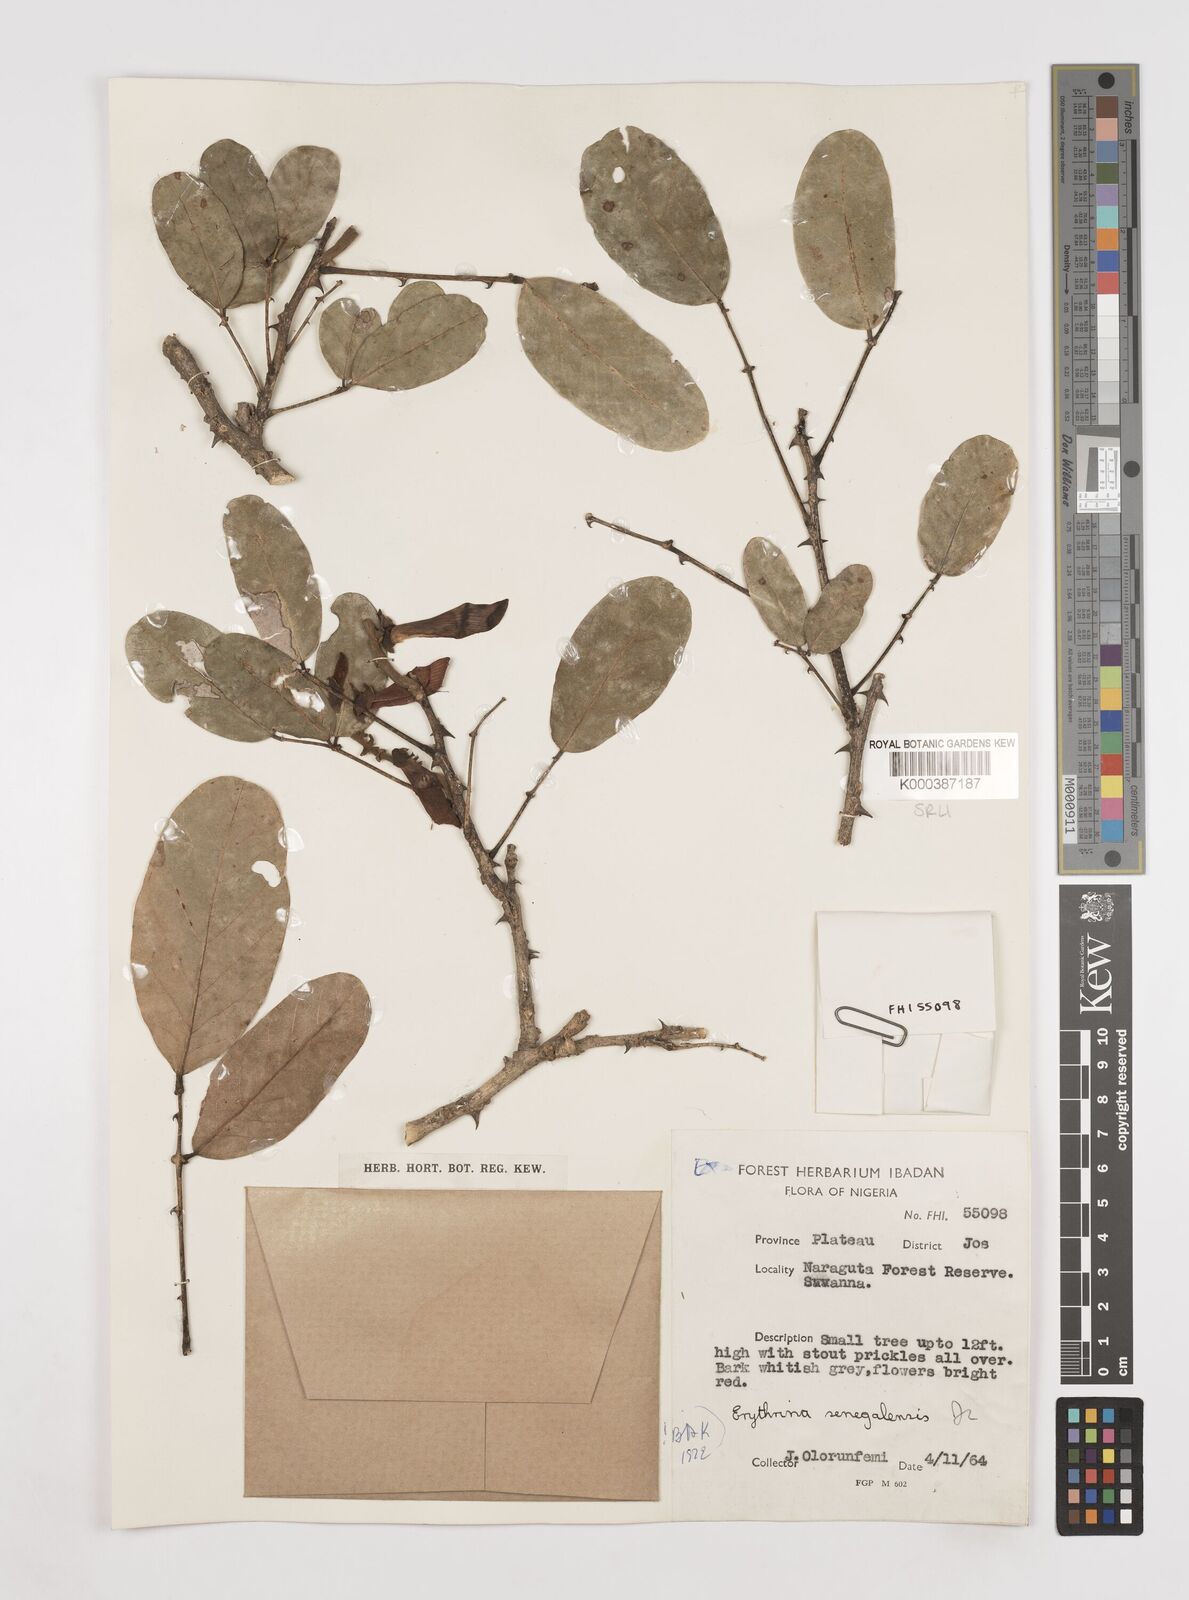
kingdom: Plantae
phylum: Tracheophyta
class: Magnoliopsida
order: Fabales
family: Fabaceae
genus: Erythrina
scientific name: Erythrina senegalensis
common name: Senegal coraltree
